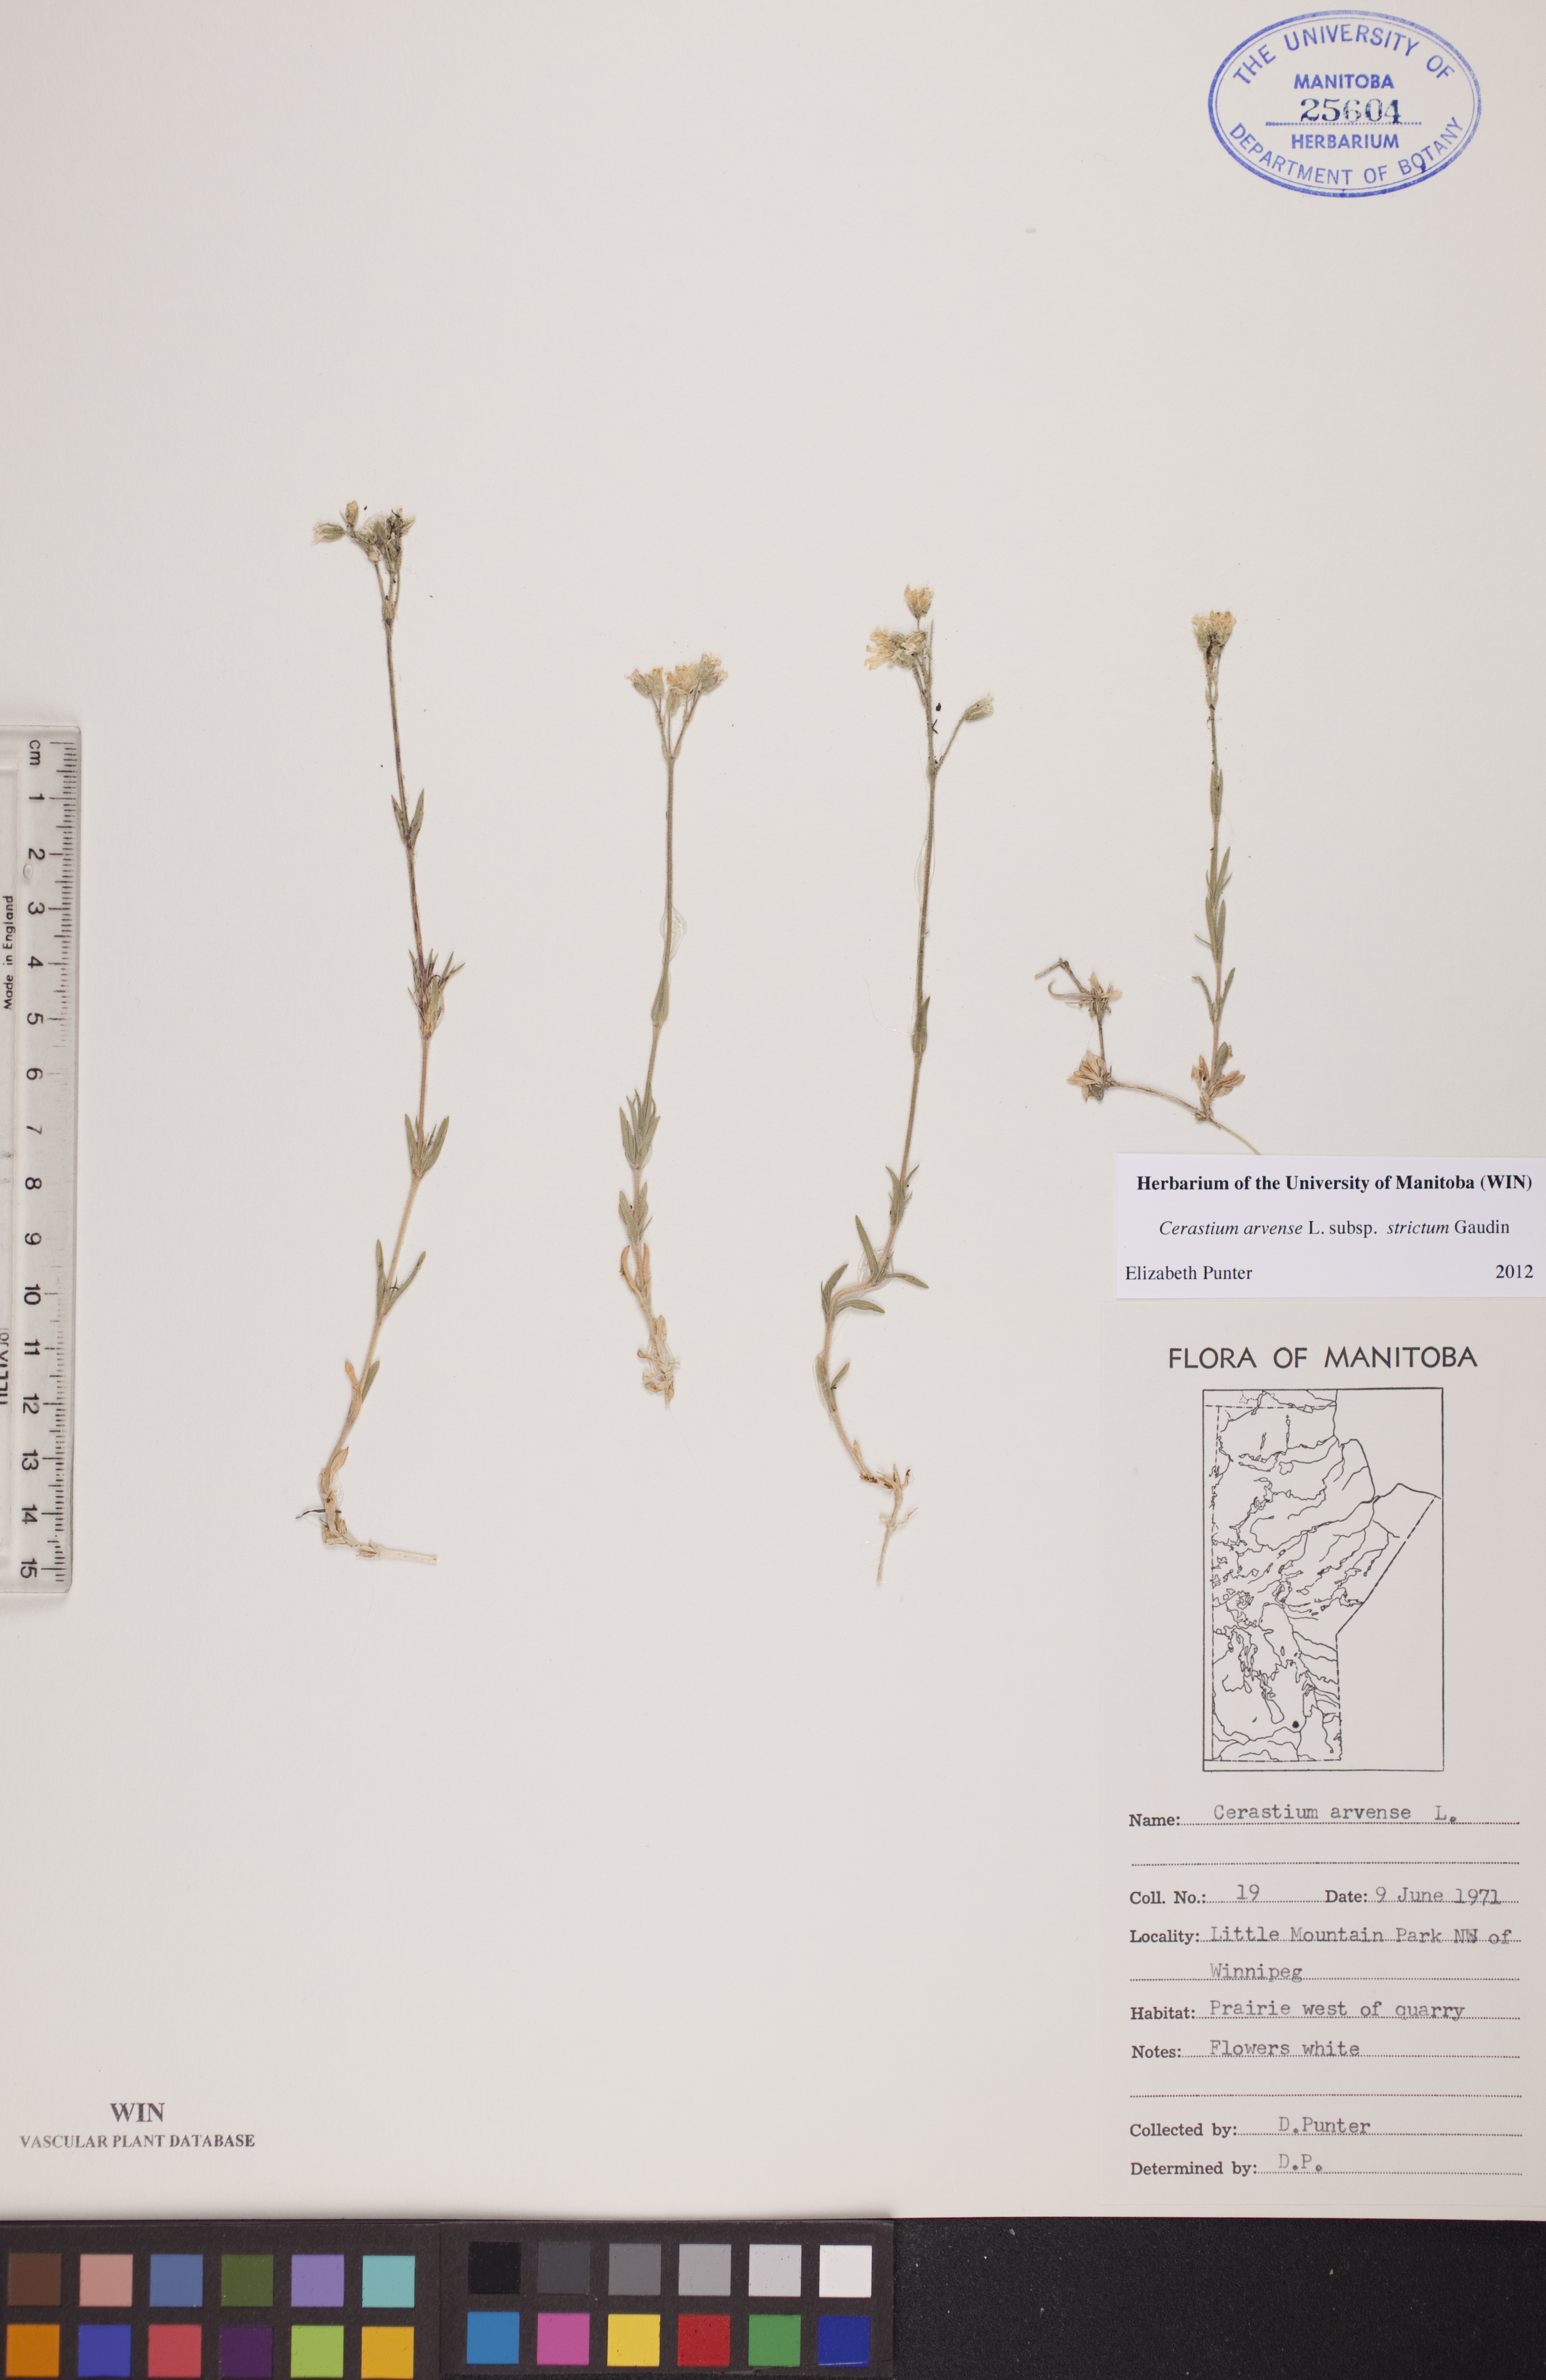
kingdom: Plantae
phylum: Tracheophyta
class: Magnoliopsida
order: Caryophyllales
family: Caryophyllaceae
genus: Cerastium
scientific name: Cerastium elongatum
